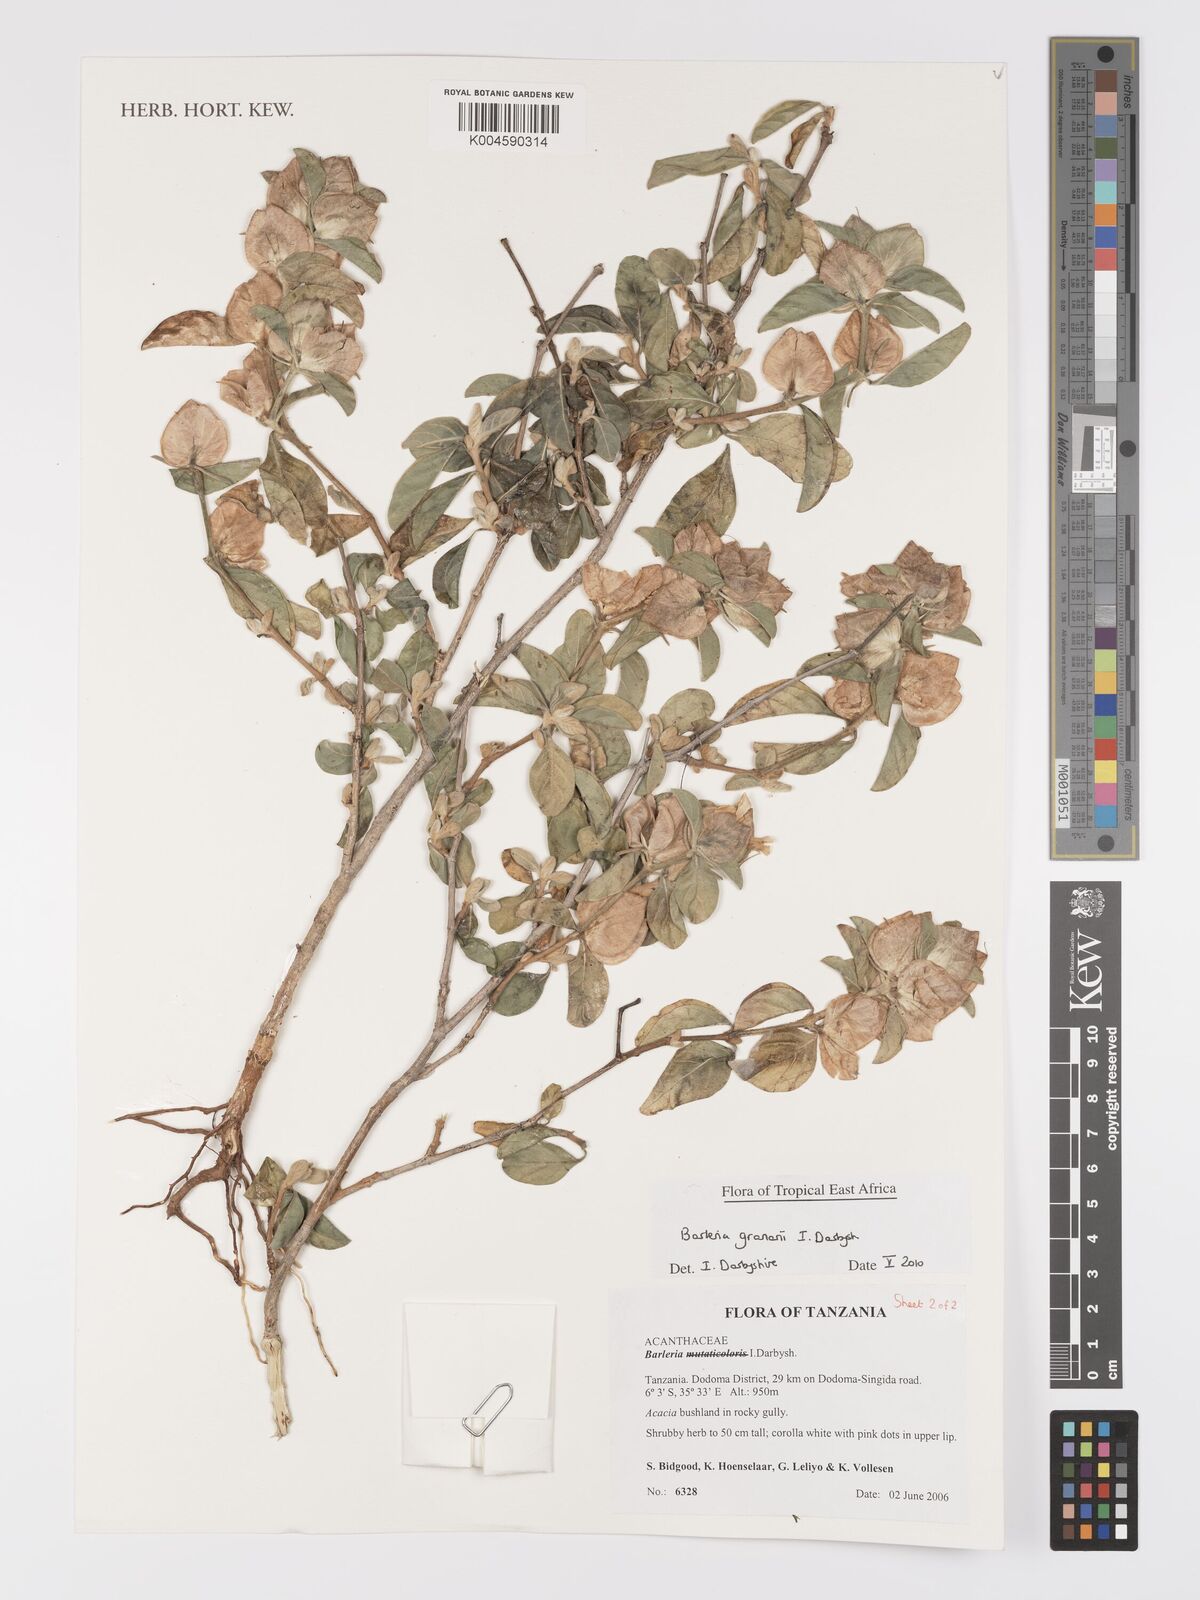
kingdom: Plantae
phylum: Tracheophyta
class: Magnoliopsida
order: Lamiales
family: Acanthaceae
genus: Barleria
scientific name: Barleria granarii
